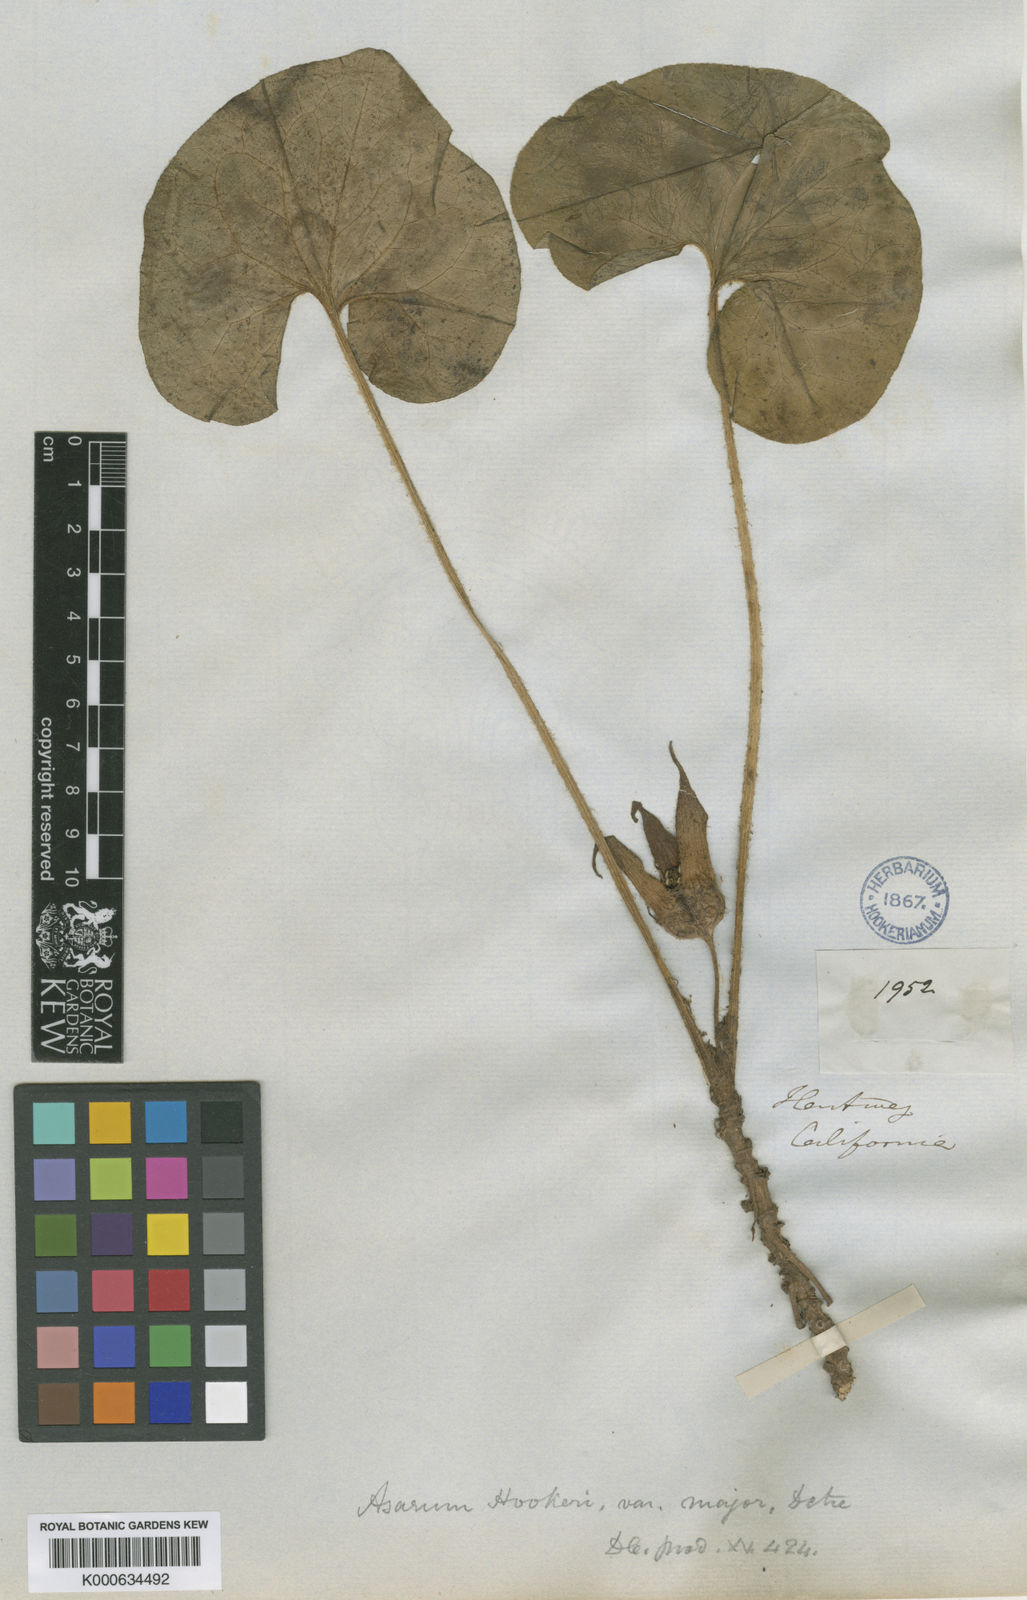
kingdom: Plantae
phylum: Tracheophyta
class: Magnoliopsida
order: Piperales
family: Aristolochiaceae
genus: Asarum
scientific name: Asarum hartwegii
